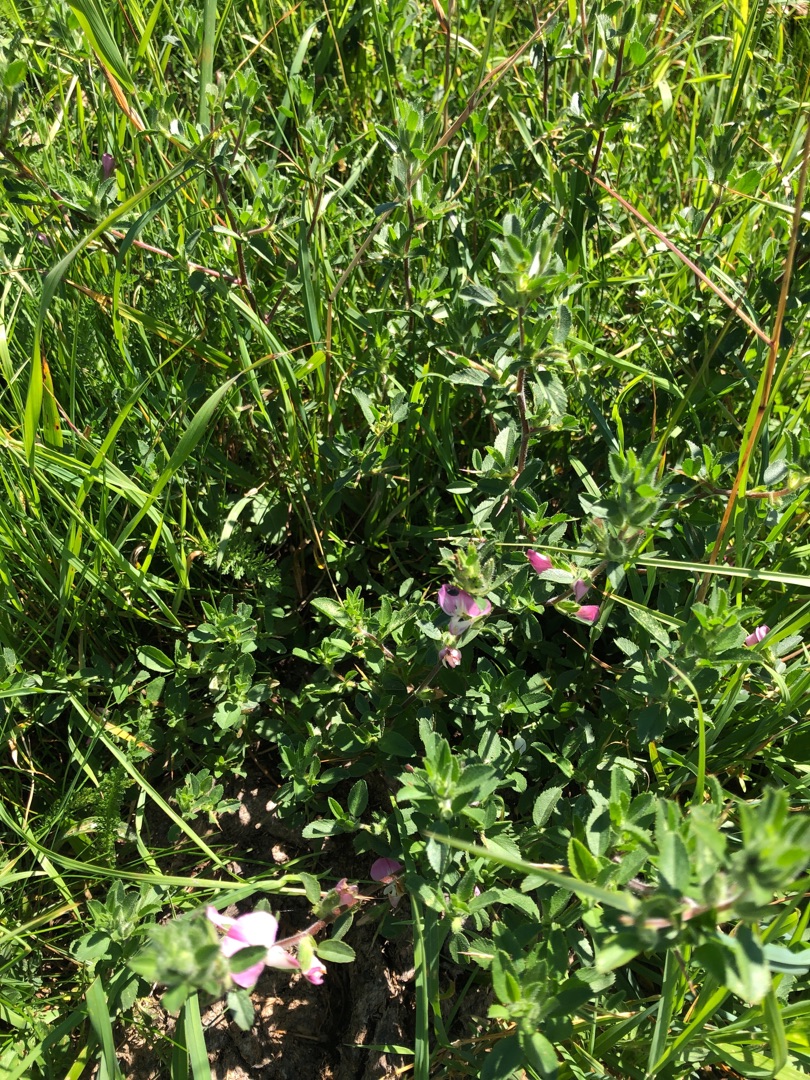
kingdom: Plantae
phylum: Tracheophyta
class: Magnoliopsida
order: Fabales
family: Fabaceae
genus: Ononis
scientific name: Ononis spinosa
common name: Mark-krageklo
